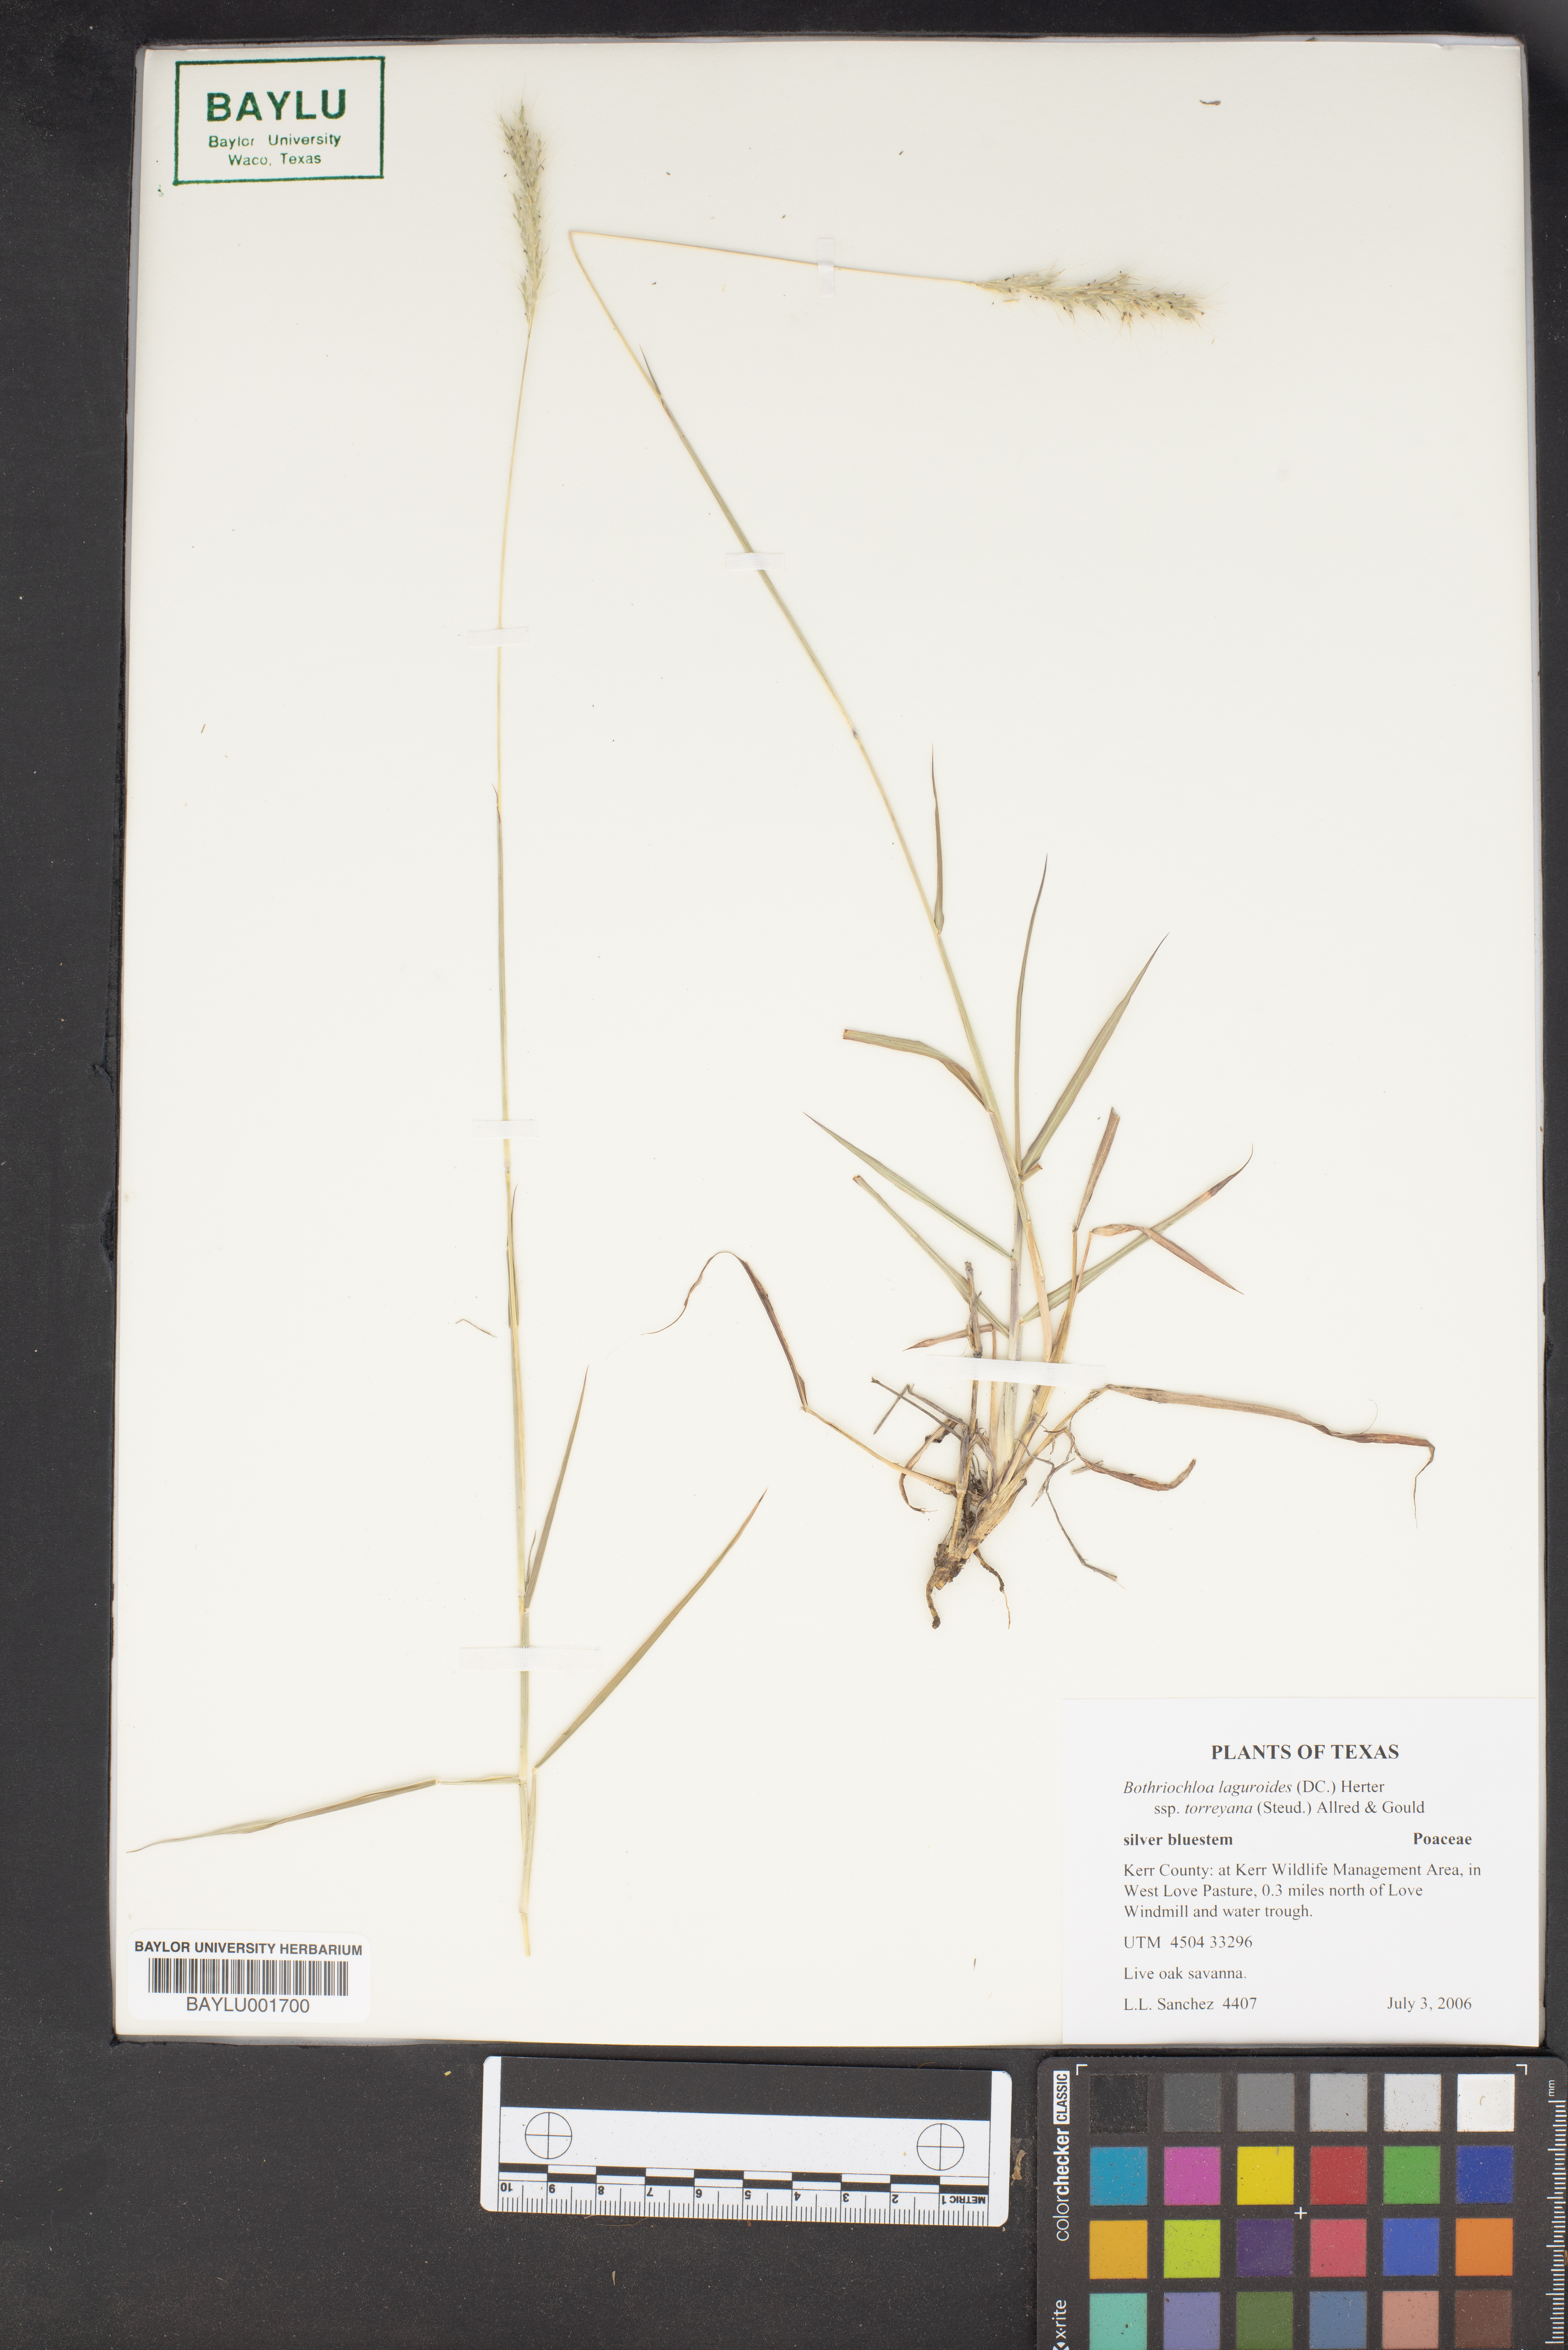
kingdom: Plantae
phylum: Tracheophyta
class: Liliopsida
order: Poales
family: Poaceae
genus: Bothriochloa
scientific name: Bothriochloa torreyana
